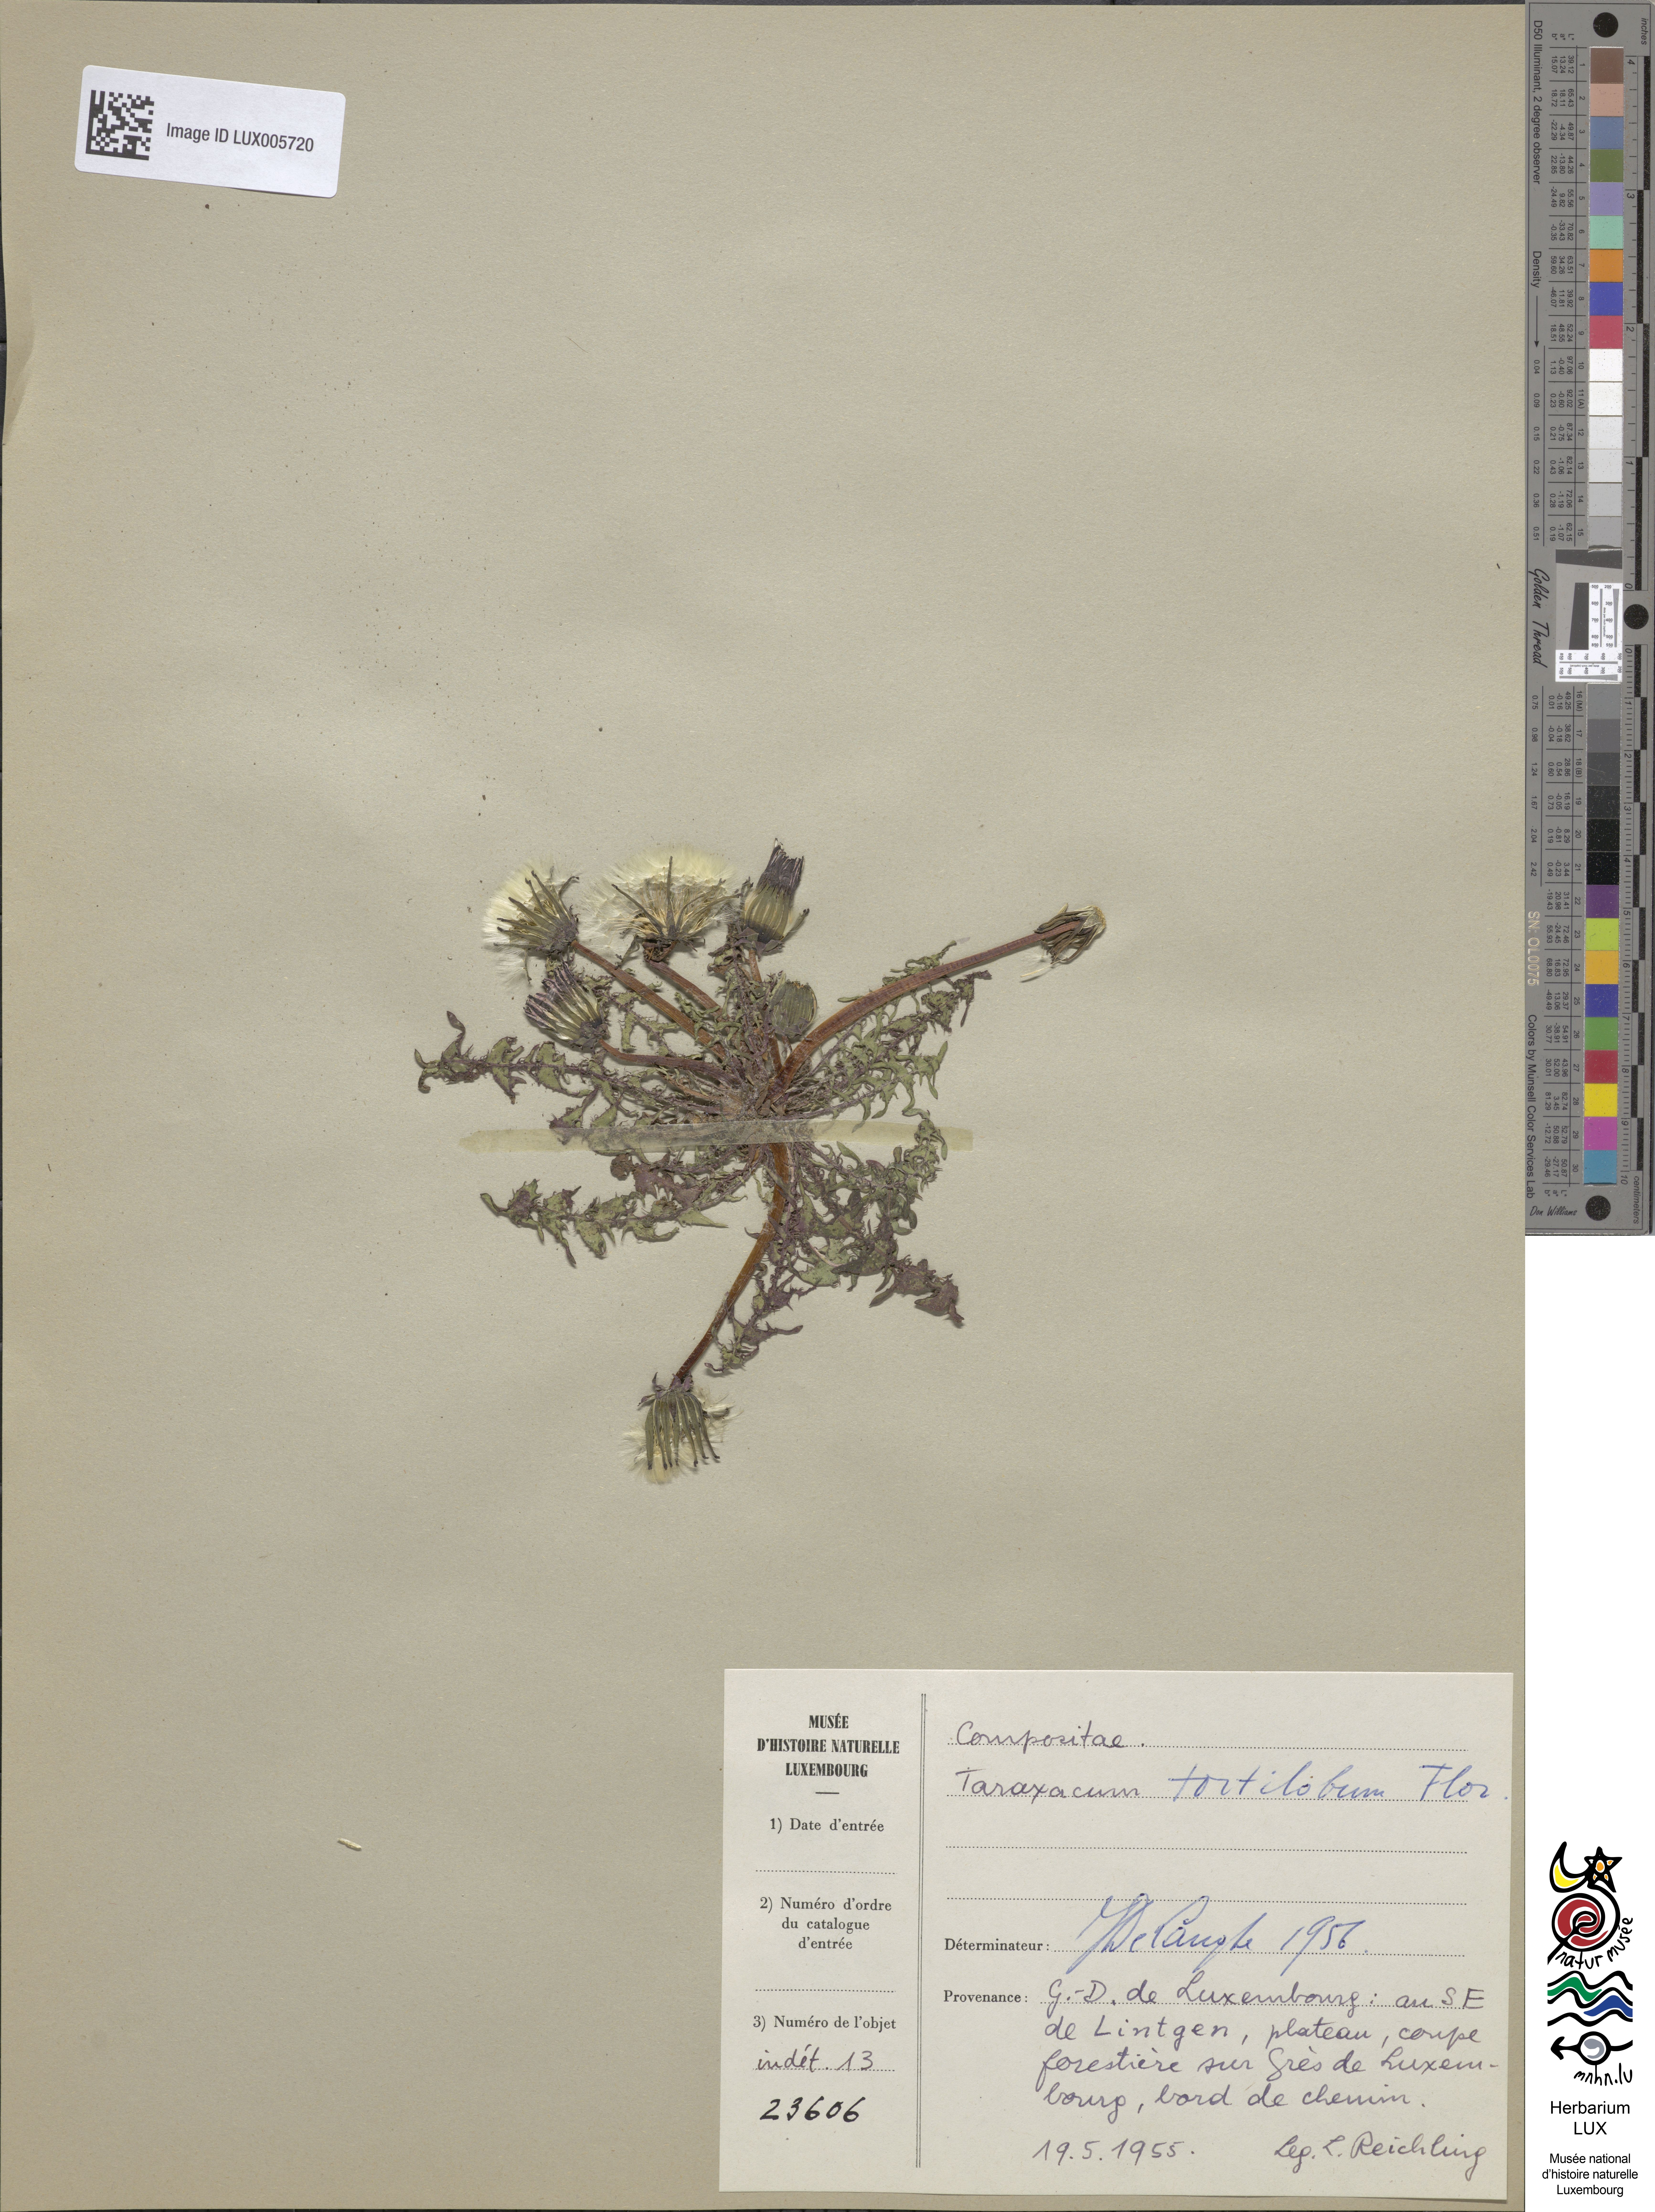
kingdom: Plantae
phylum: Tracheophyta
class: Magnoliopsida
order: Asterales
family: Asteraceae
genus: Taraxacum
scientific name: Taraxacum tortilobum
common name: Twisted-lobed dandelion
